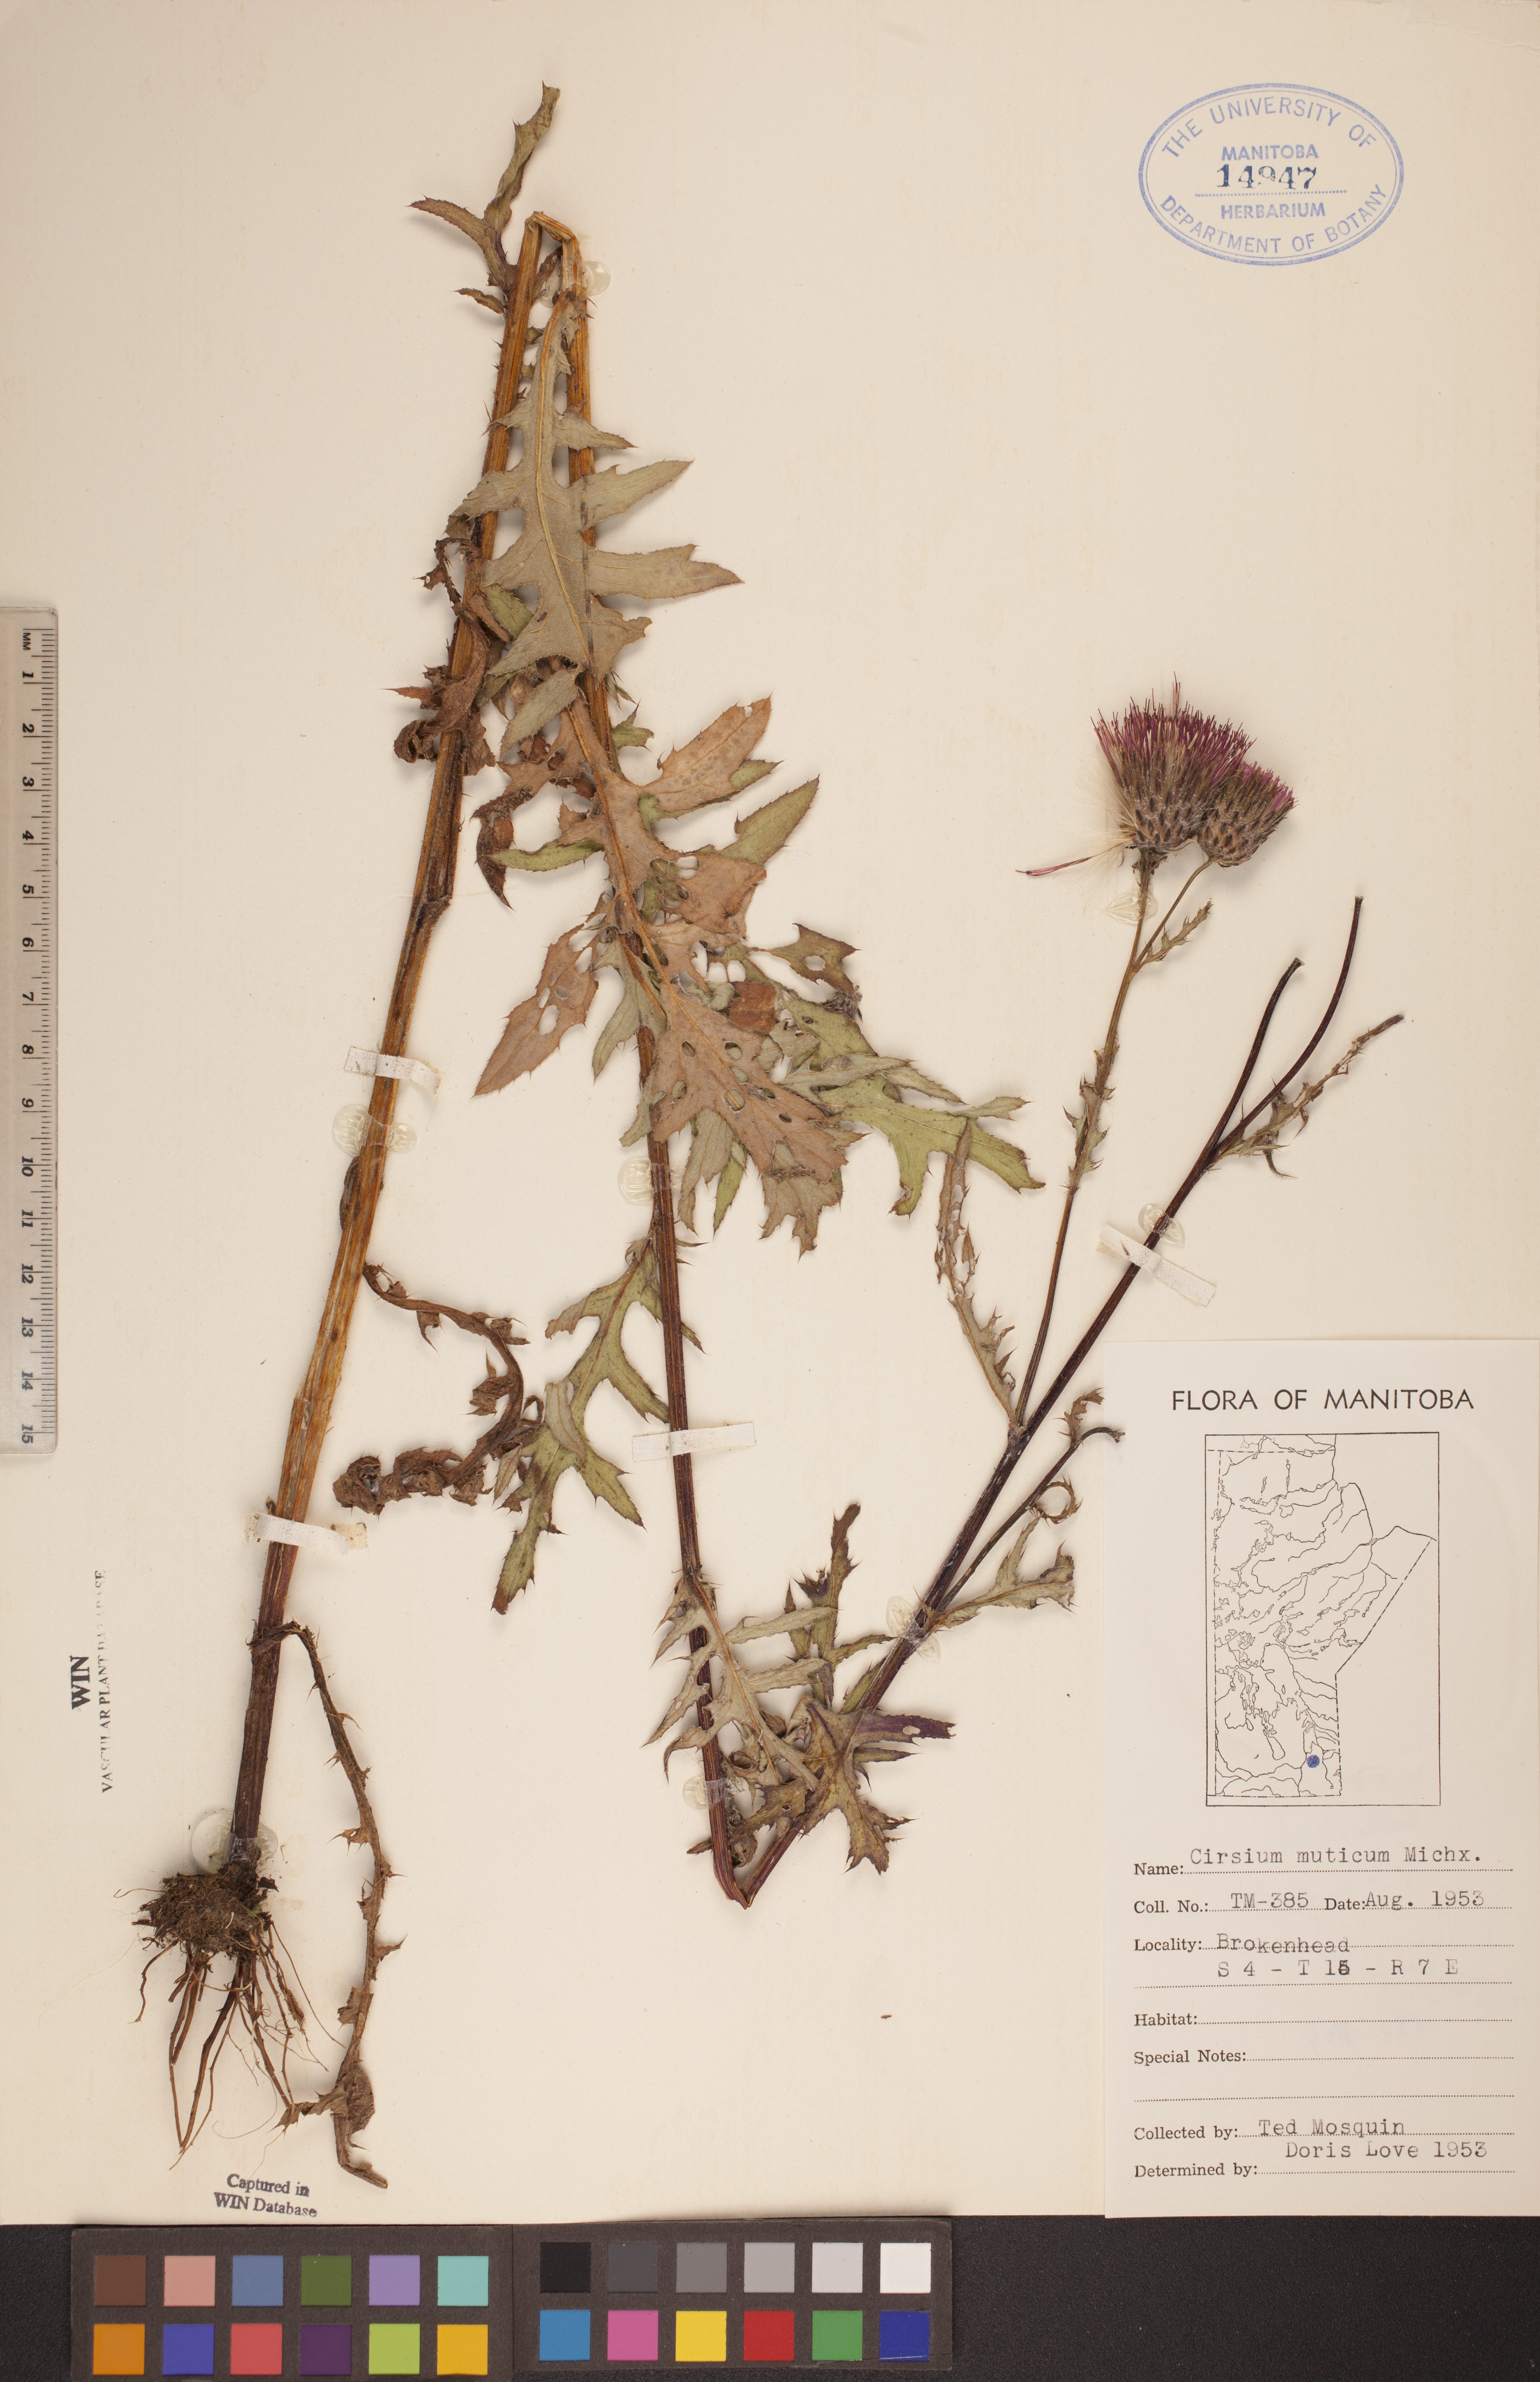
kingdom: Plantae
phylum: Tracheophyta
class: Magnoliopsida
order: Asterales
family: Asteraceae
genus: Cirsium
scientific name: Cirsium muticum
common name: Dunce-nettle
